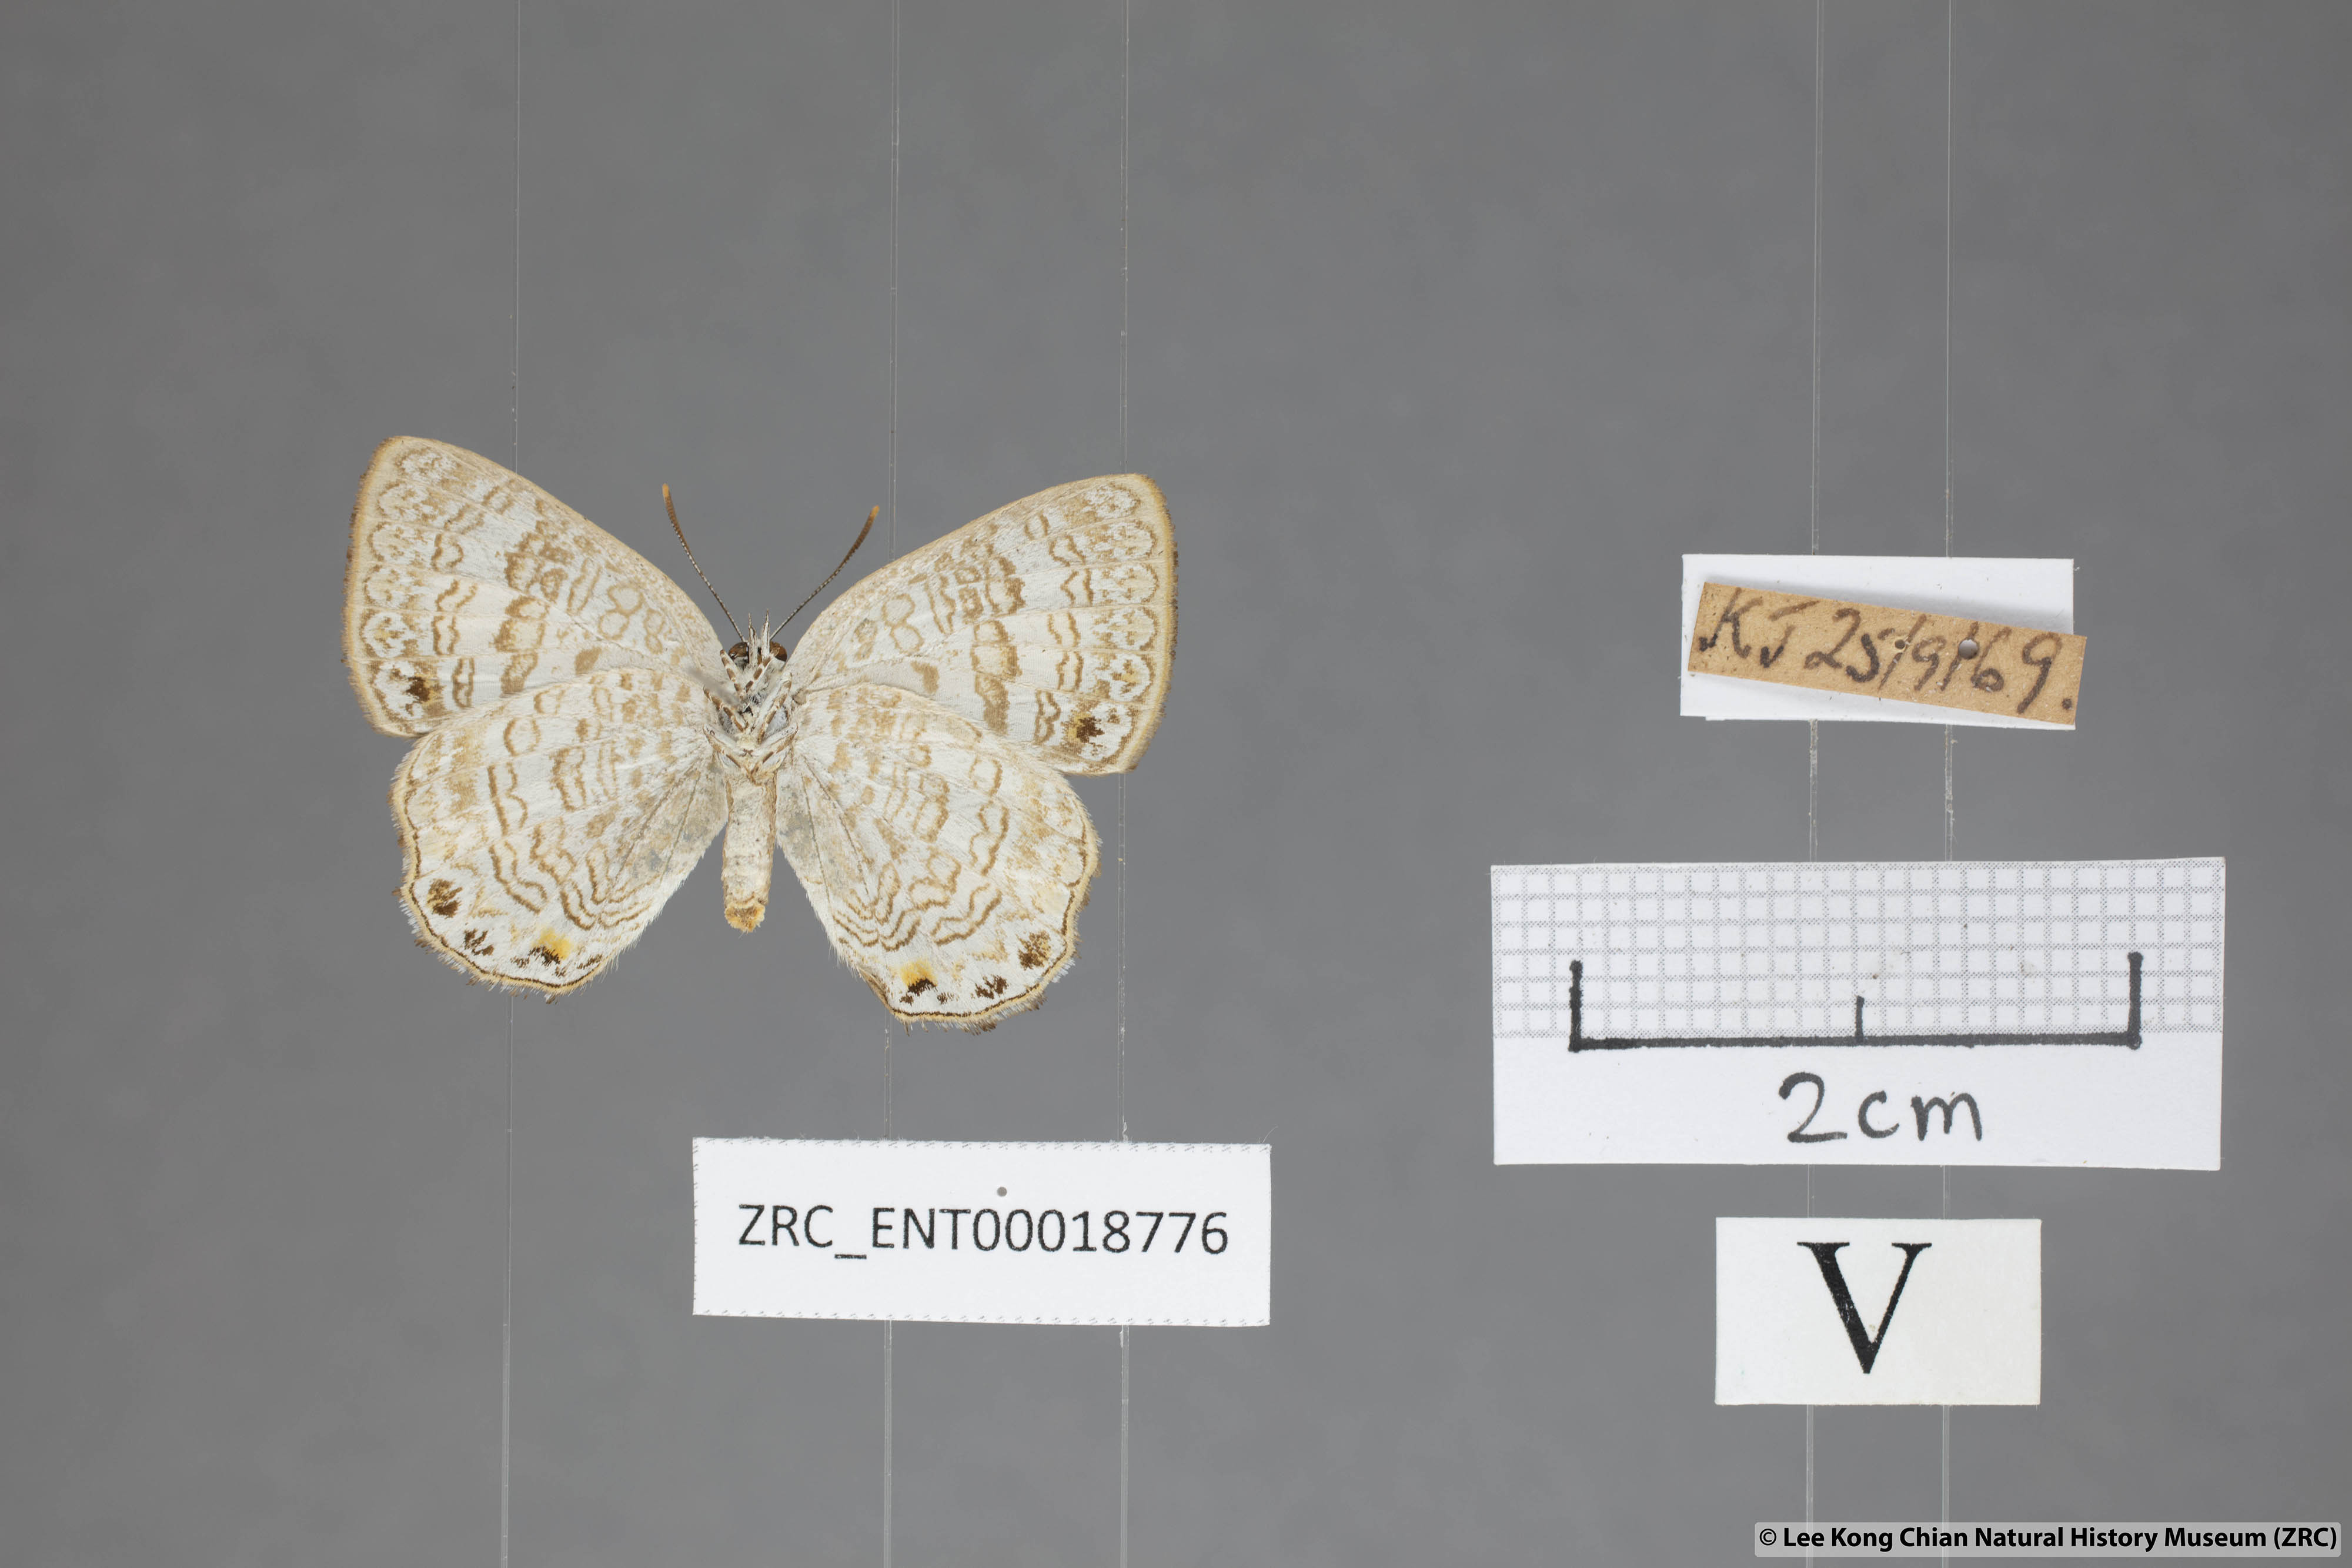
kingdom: Animalia
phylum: Arthropoda
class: Insecta
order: Lepidoptera
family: Lycaenidae
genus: Poritia
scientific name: Poritia erycinoides
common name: Blue gem
